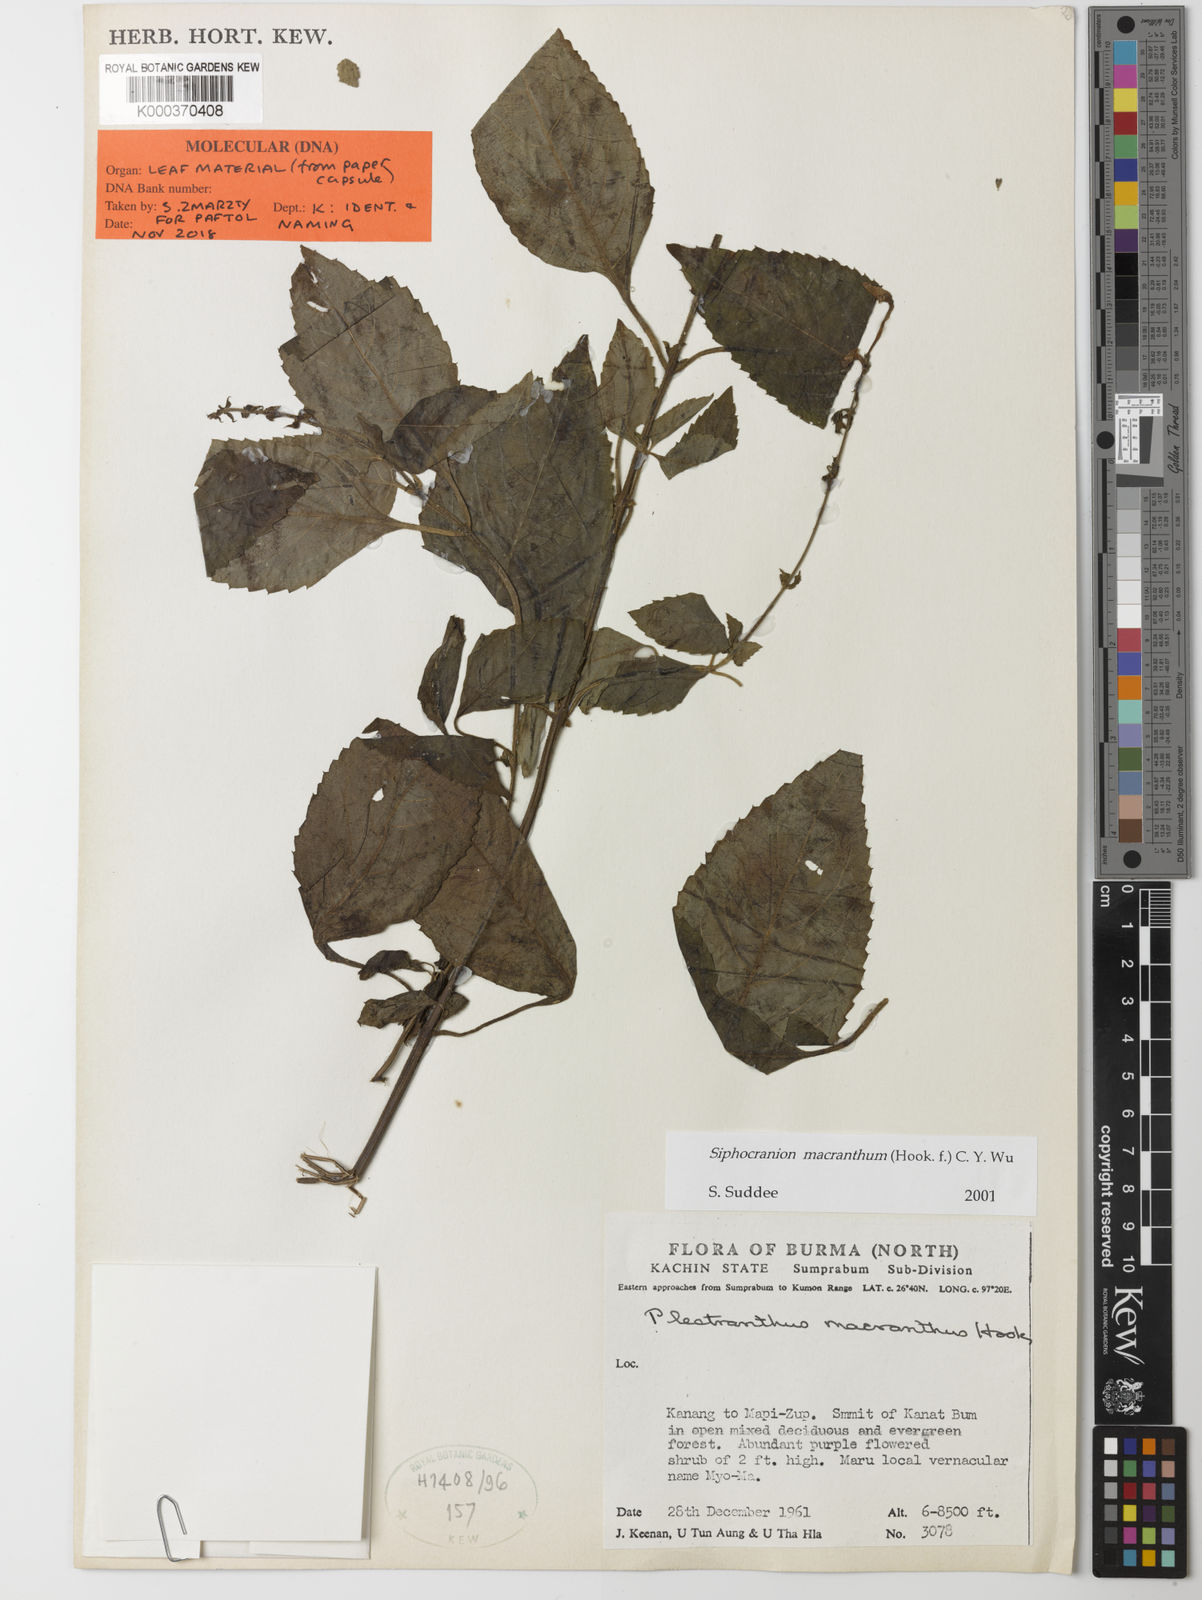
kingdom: Plantae
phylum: Tracheophyta
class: Magnoliopsida
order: Lamiales
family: Lamiaceae
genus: Siphocranion
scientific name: Siphocranion macranthum
